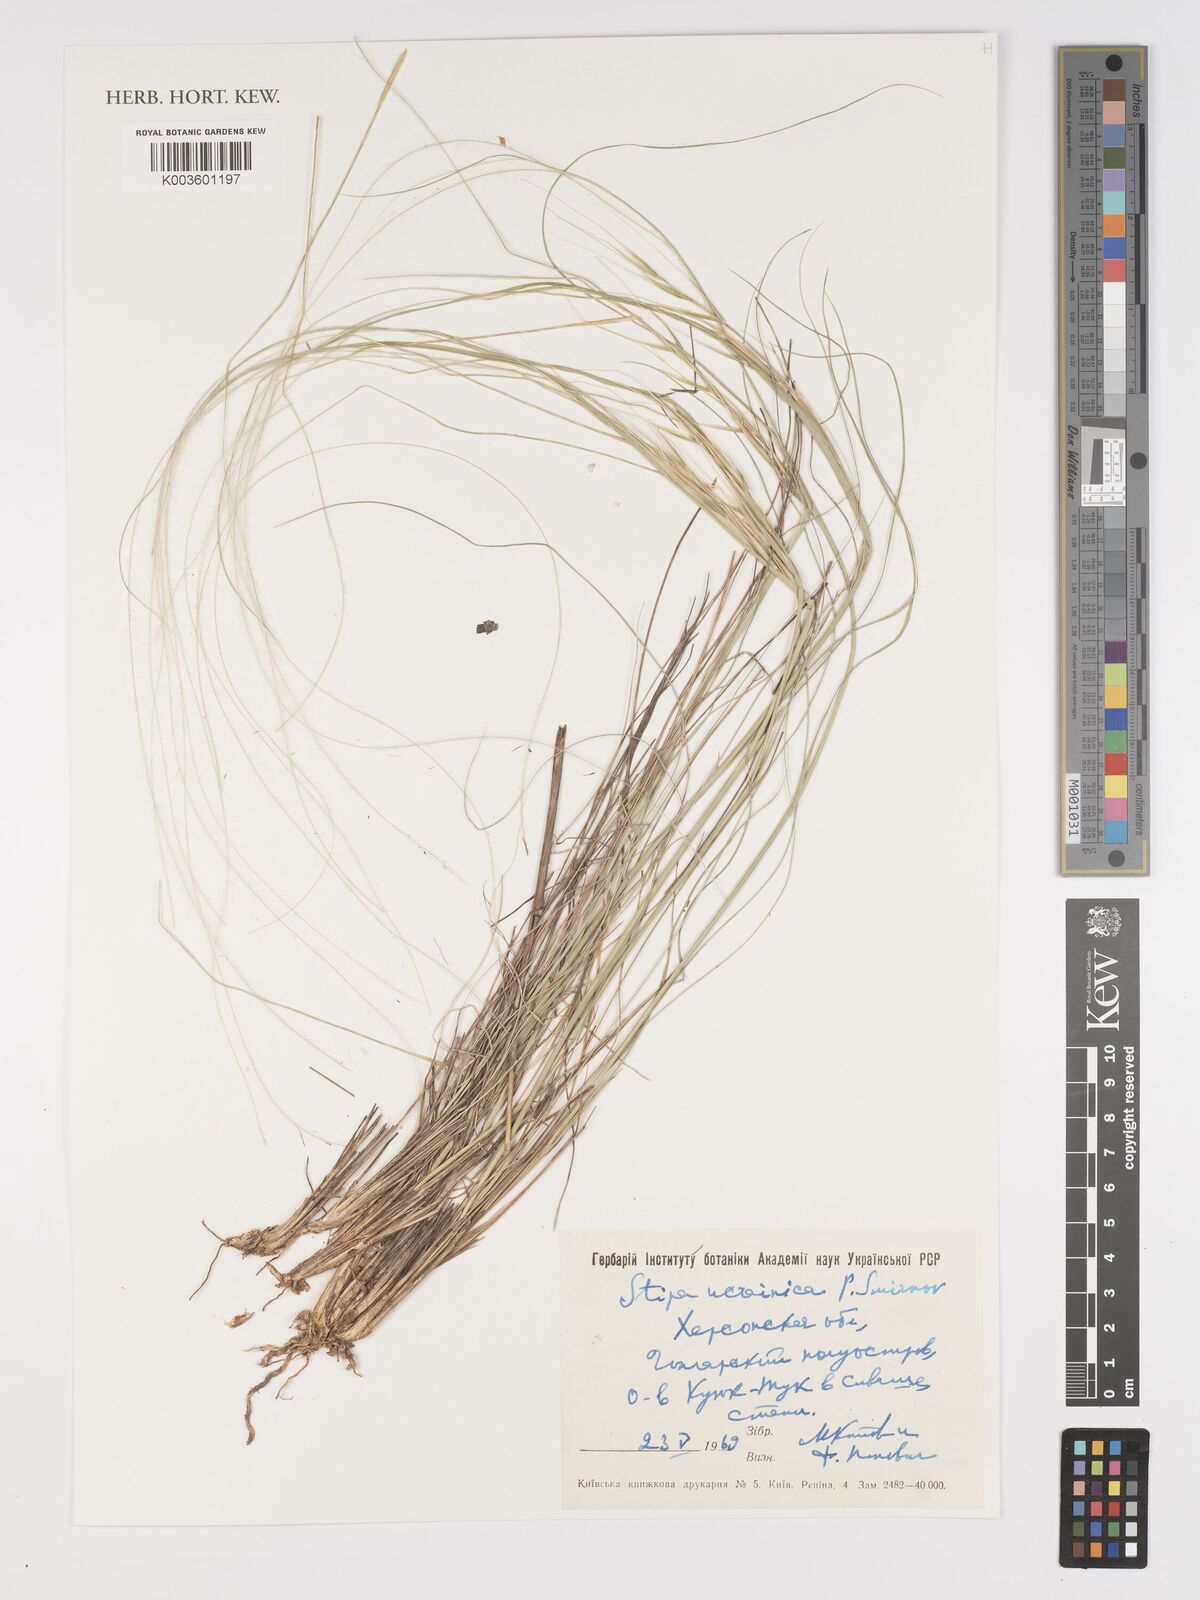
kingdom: Plantae
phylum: Tracheophyta
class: Liliopsida
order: Poales
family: Poaceae
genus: Stipa
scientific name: Stipa
